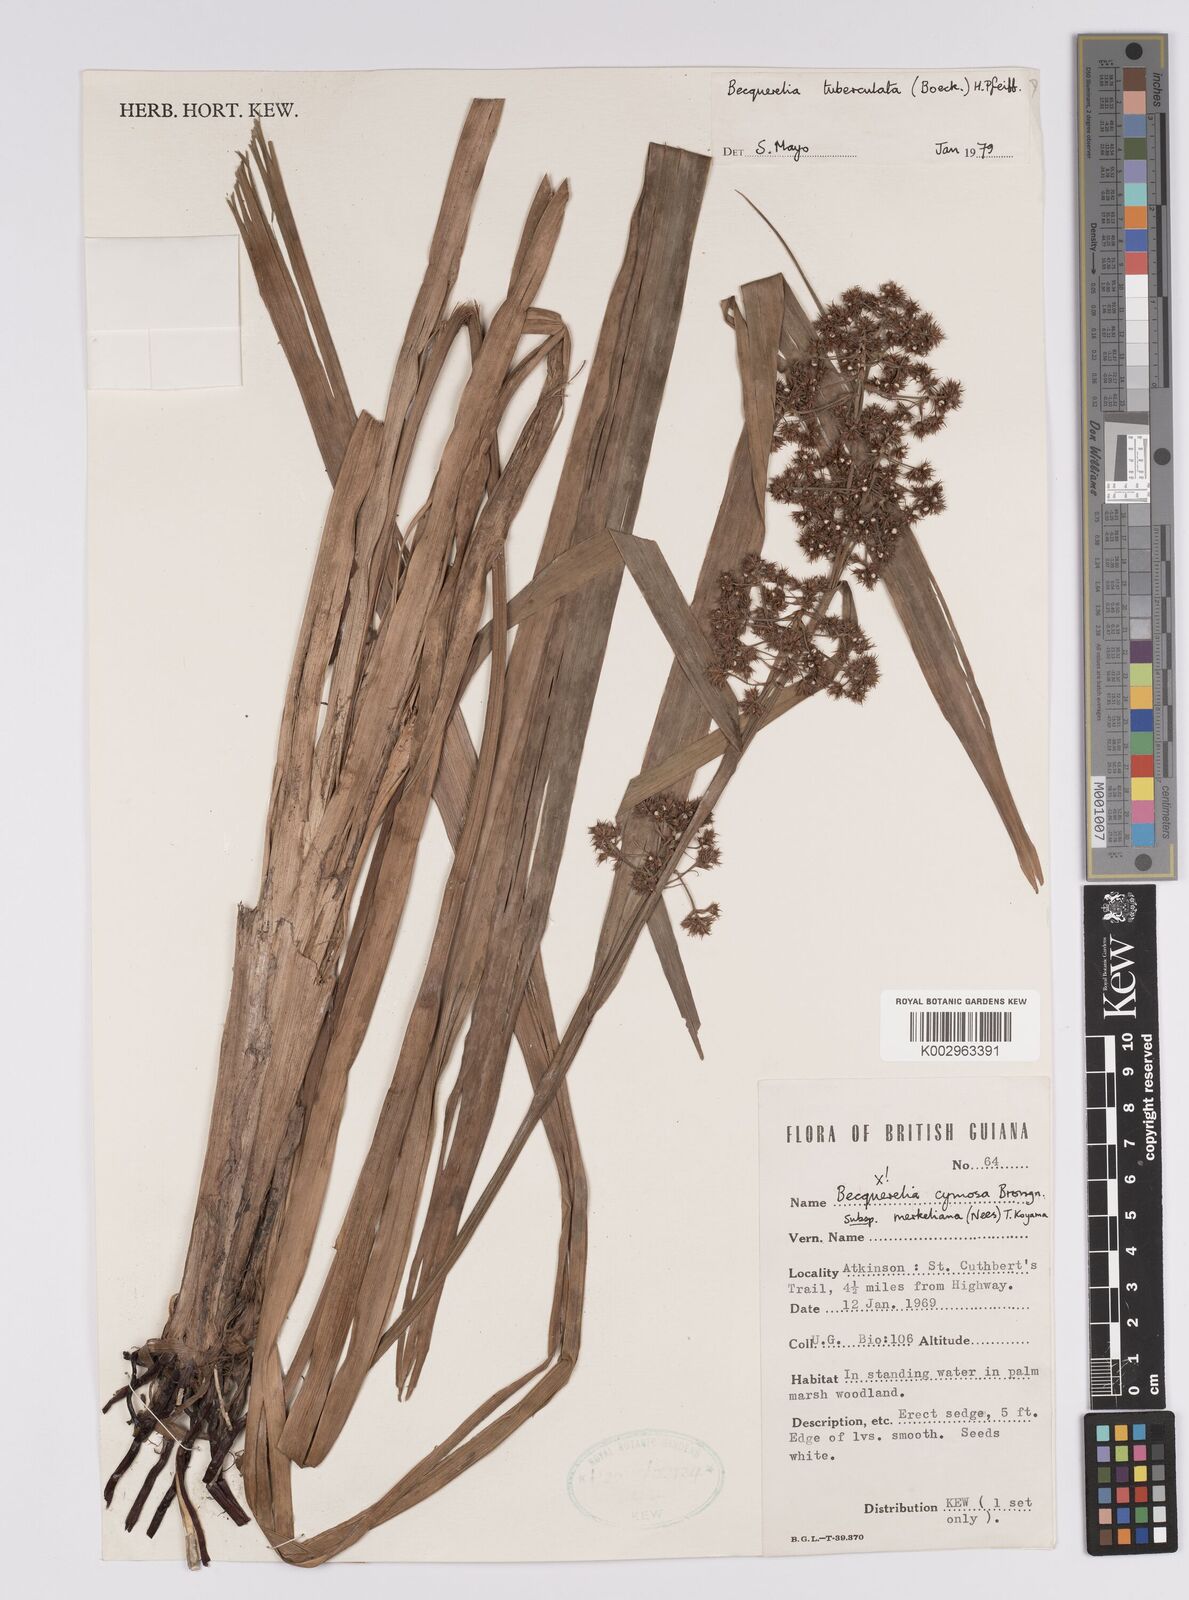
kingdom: Plantae
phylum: Tracheophyta
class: Liliopsida
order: Poales
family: Cyperaceae
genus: Becquerelia
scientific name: Becquerelia tuberculata
